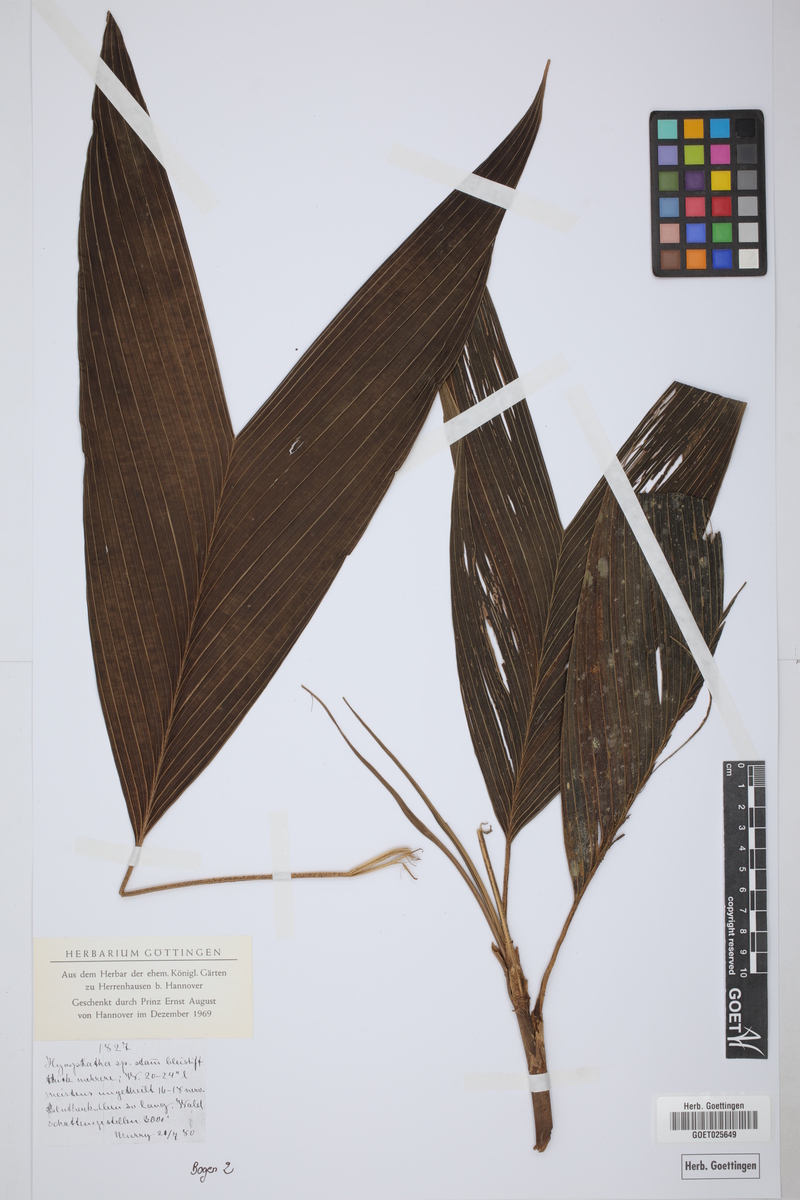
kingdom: Plantae
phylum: Tracheophyta
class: Liliopsida
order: Arecales
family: Arecaceae
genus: Hyospathe
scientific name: Hyospathe
